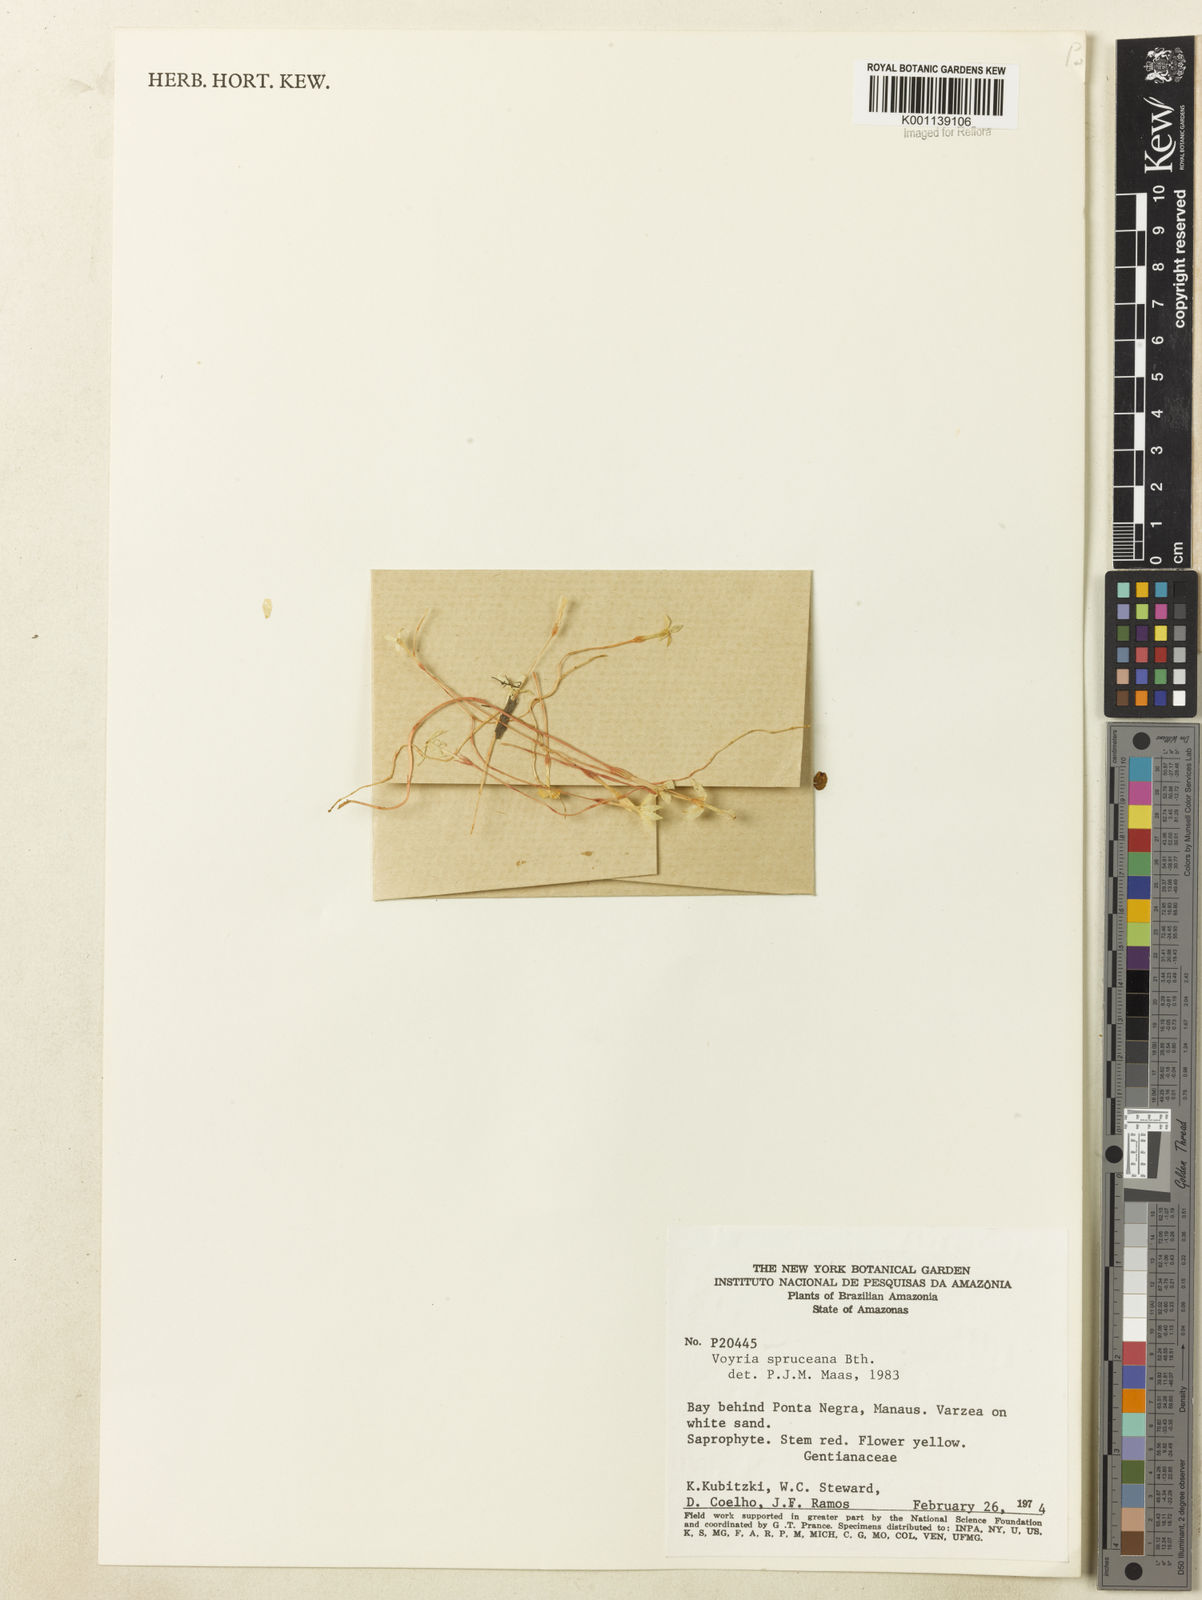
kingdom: Plantae
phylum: Tracheophyta
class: Magnoliopsida
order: Gentianales
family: Gentianaceae
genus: Voyria
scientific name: Voyria spruceana
